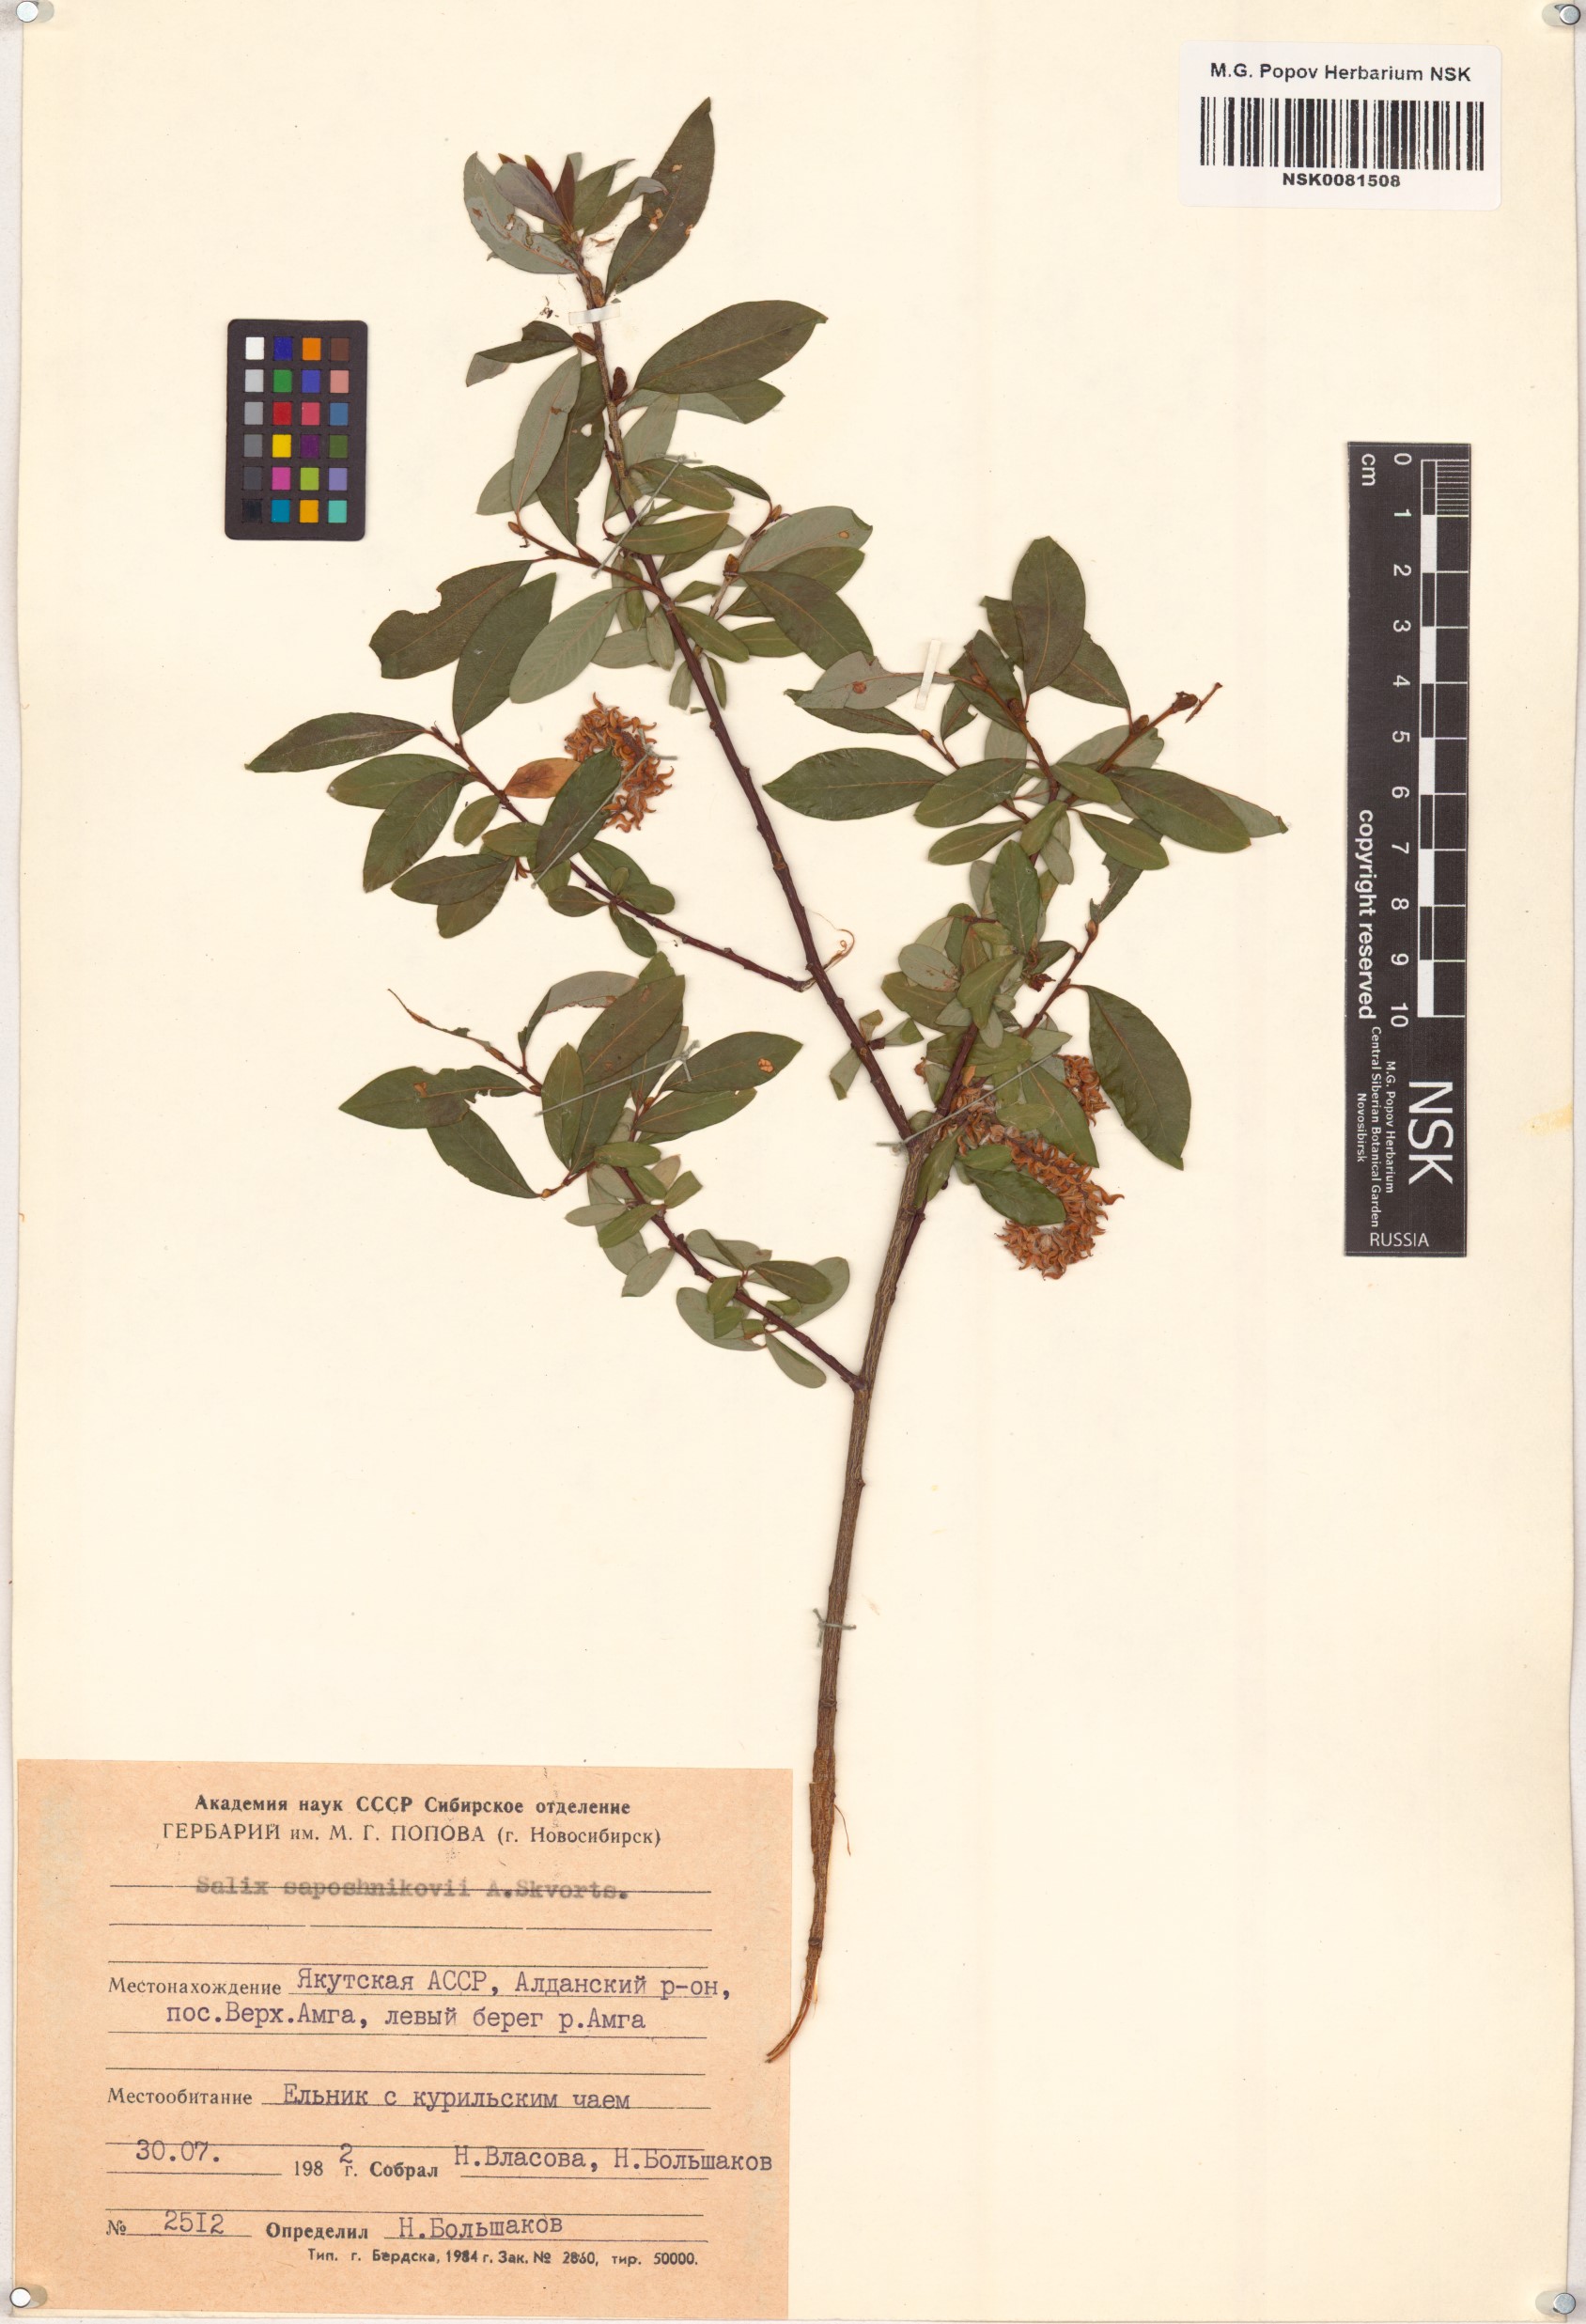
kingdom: Plantae
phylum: Tracheophyta
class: Magnoliopsida
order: Malpighiales
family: Salicaceae
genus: Salix
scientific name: Salix saposhnikovii
